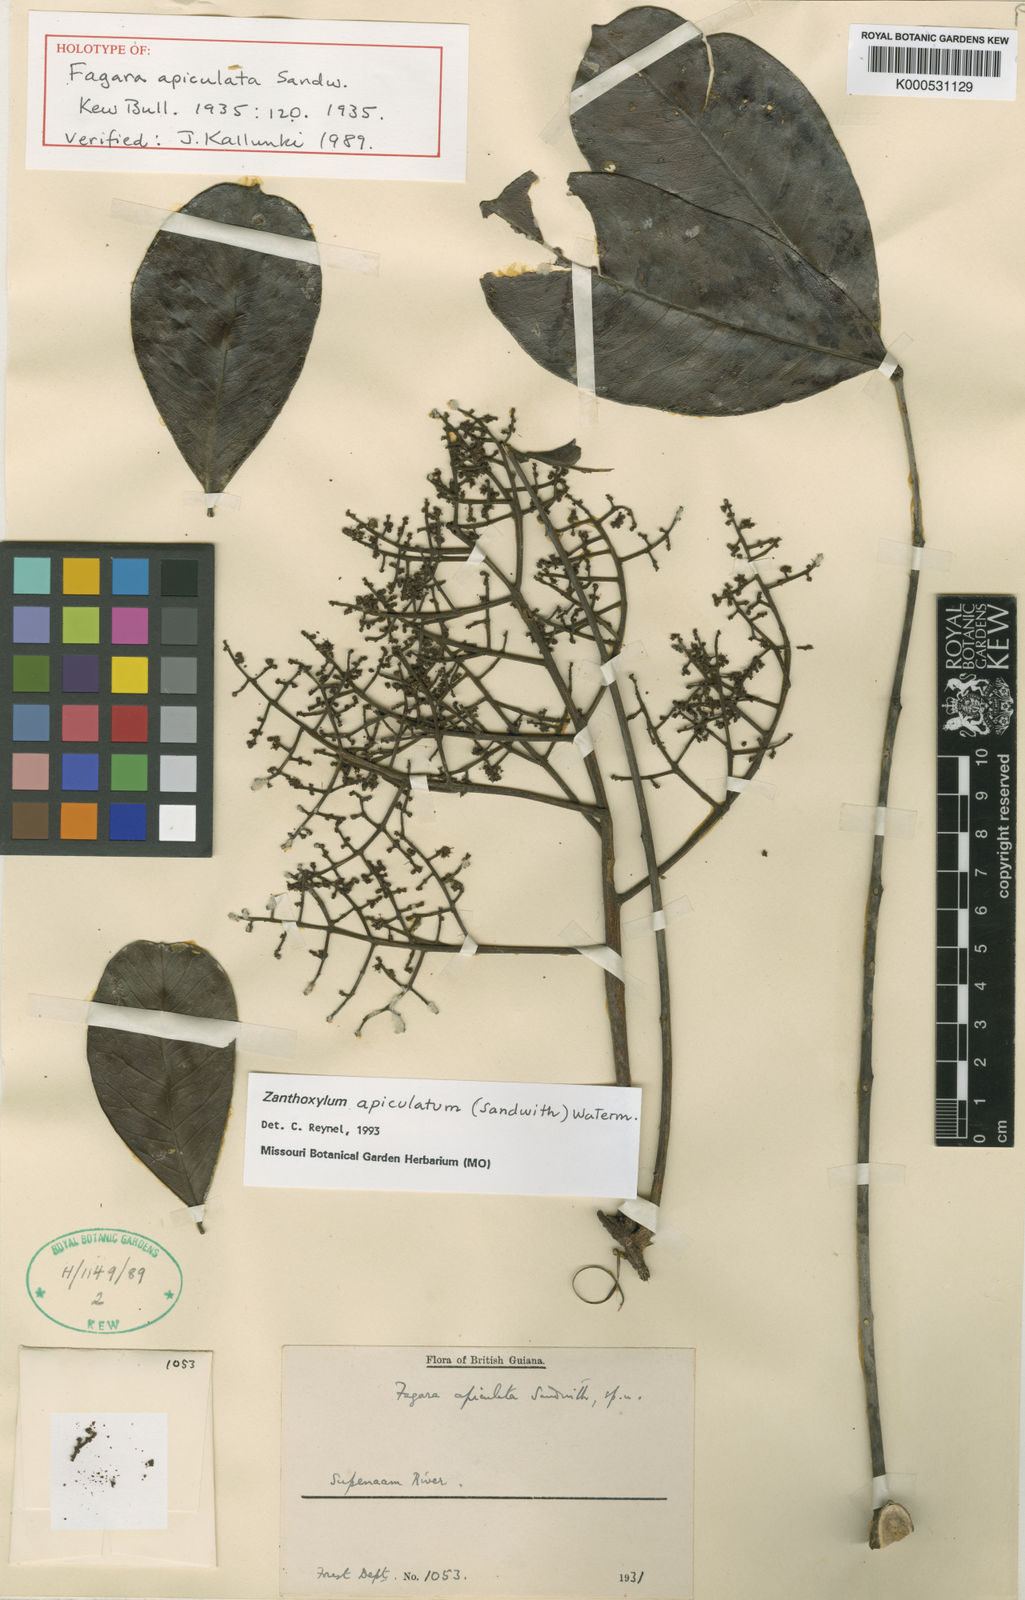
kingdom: Plantae
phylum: Tracheophyta
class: Magnoliopsida
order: Sapindales
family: Rutaceae
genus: Zanthoxylum
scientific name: Zanthoxylum apiculatum
